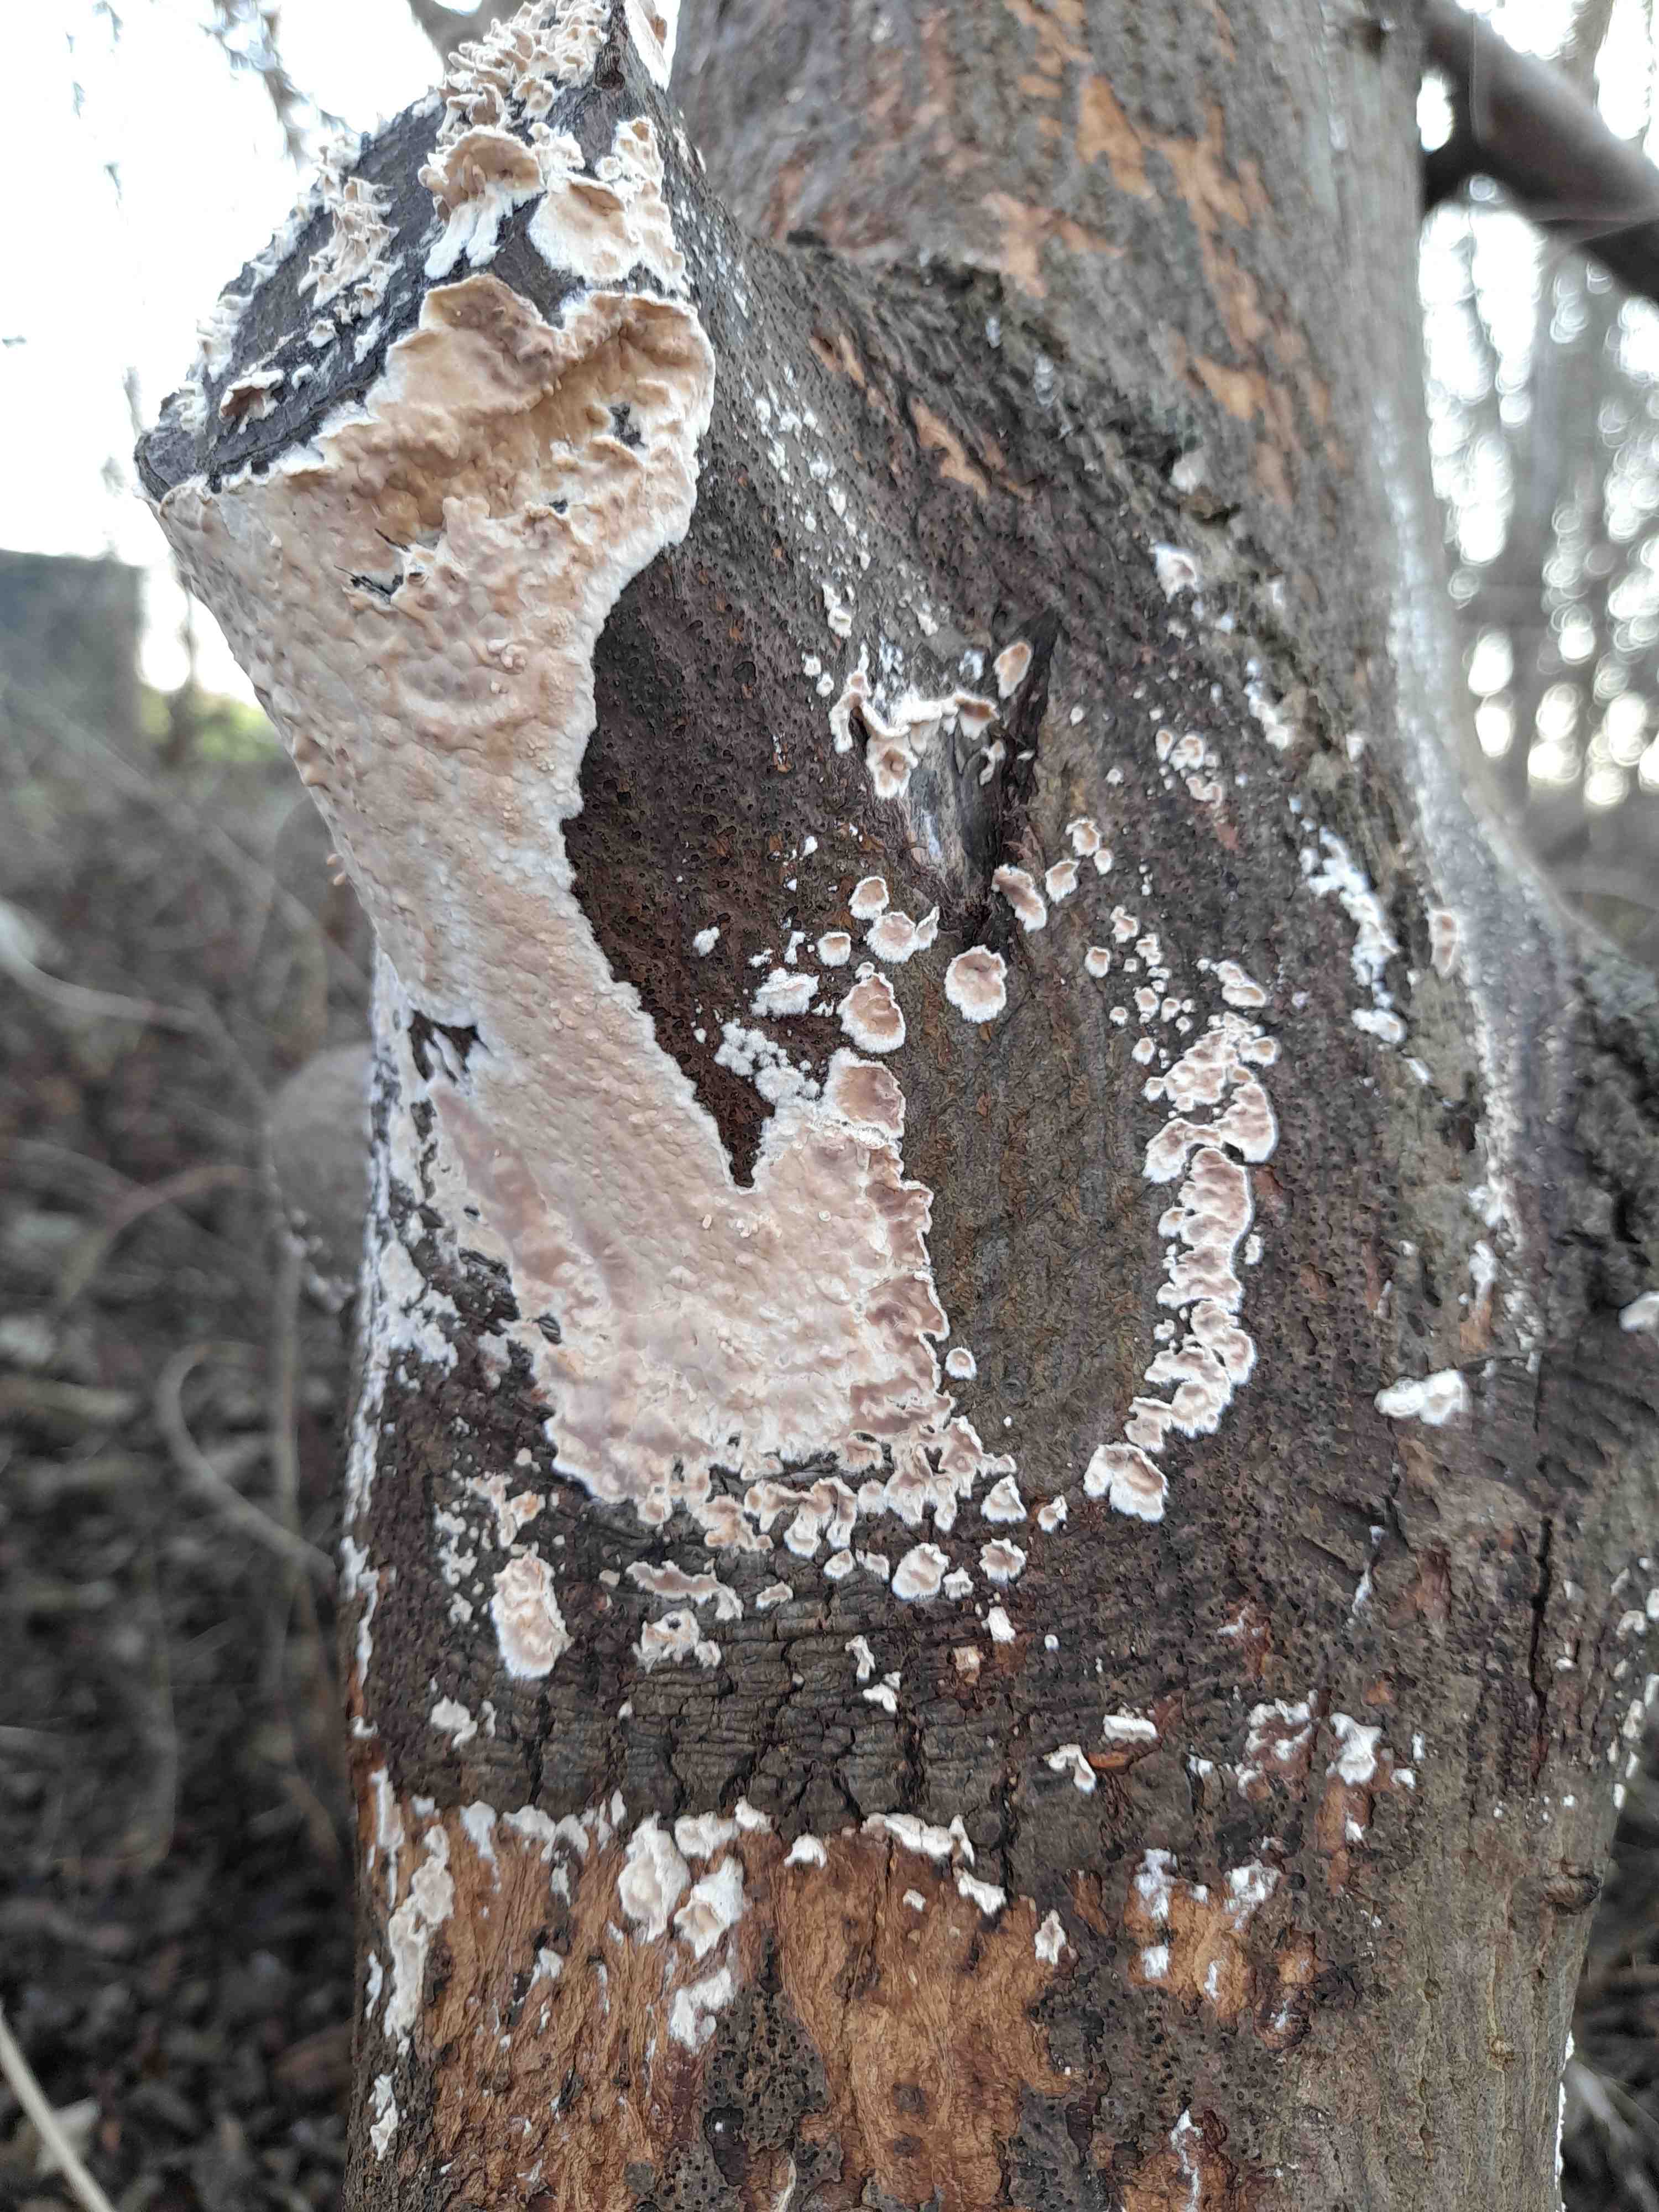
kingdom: Fungi
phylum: Basidiomycota
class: Agaricomycetes
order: Agaricales
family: Physalacriaceae
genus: Cylindrobasidium
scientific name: Cylindrobasidium evolvens
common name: sprækkehinde
